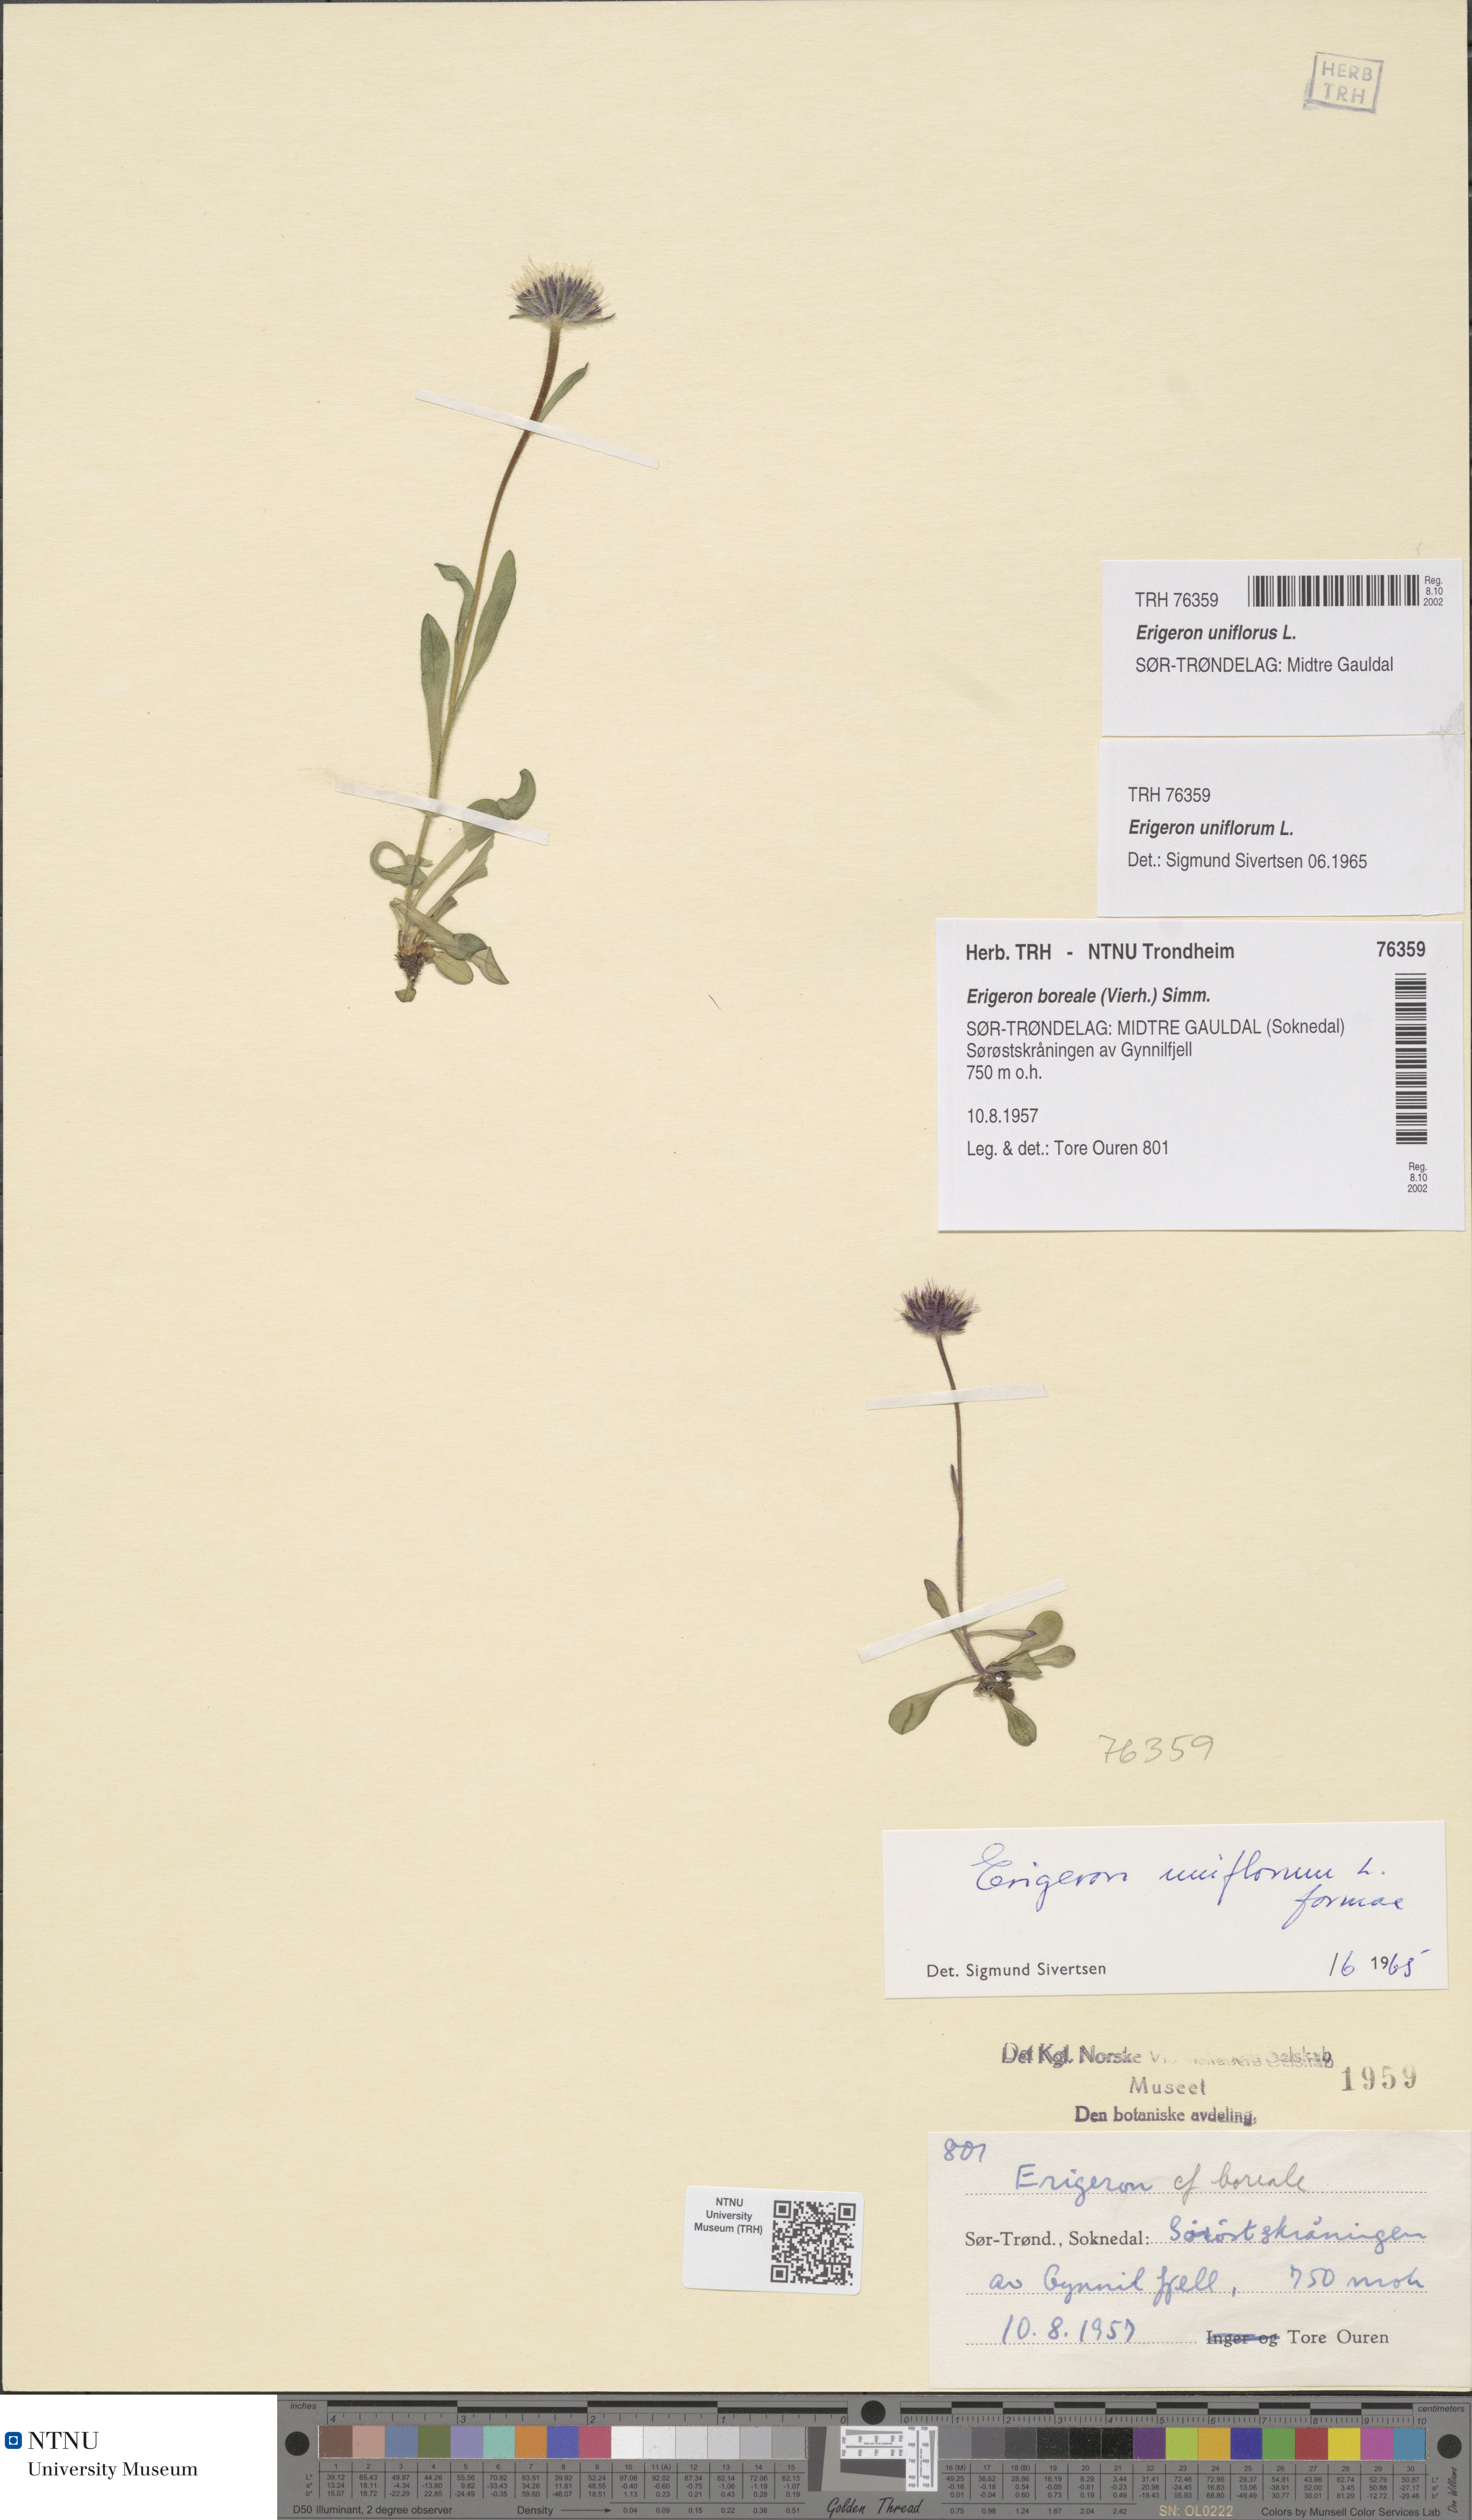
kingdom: Plantae
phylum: Tracheophyta
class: Magnoliopsida
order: Asterales
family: Asteraceae
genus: Erigeron
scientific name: Erigeron uniflorus
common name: Northern daisy
